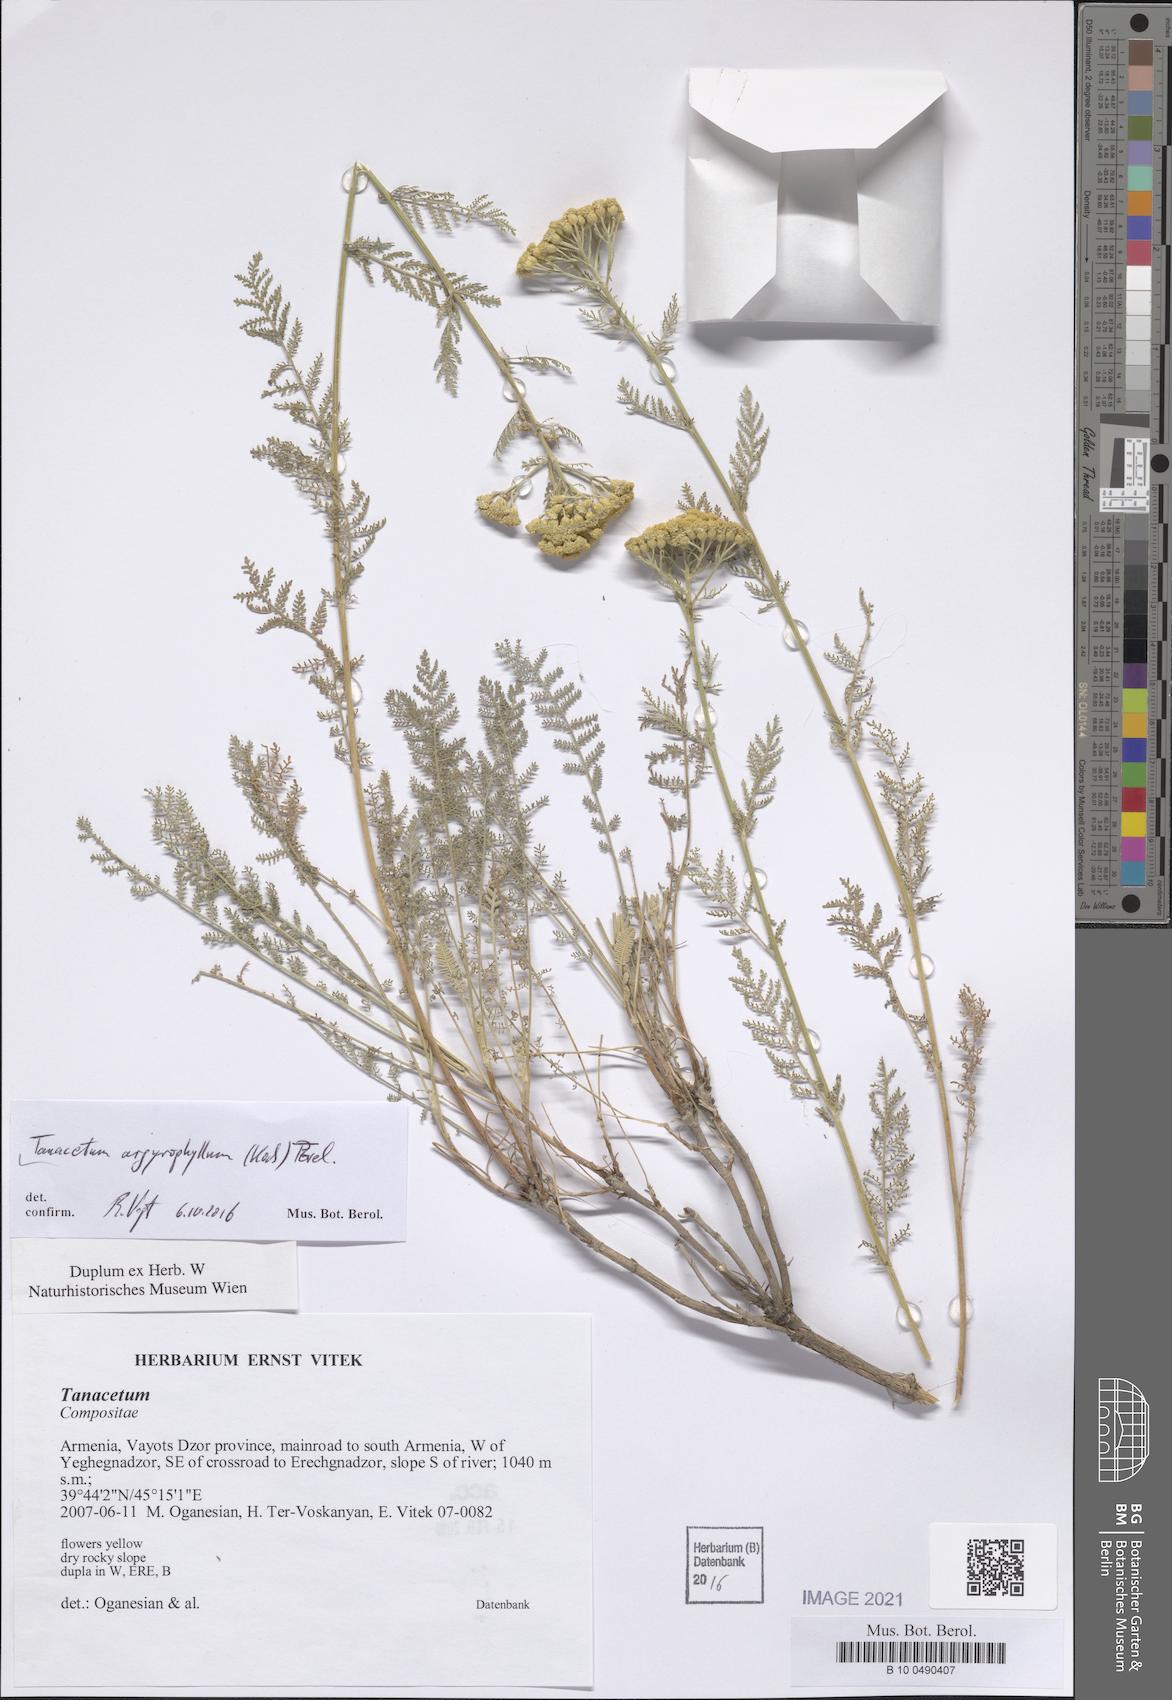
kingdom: Plantae
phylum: Tracheophyta
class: Magnoliopsida
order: Asterales
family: Asteraceae
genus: Tanacetum
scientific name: Tanacetum polycephalum
